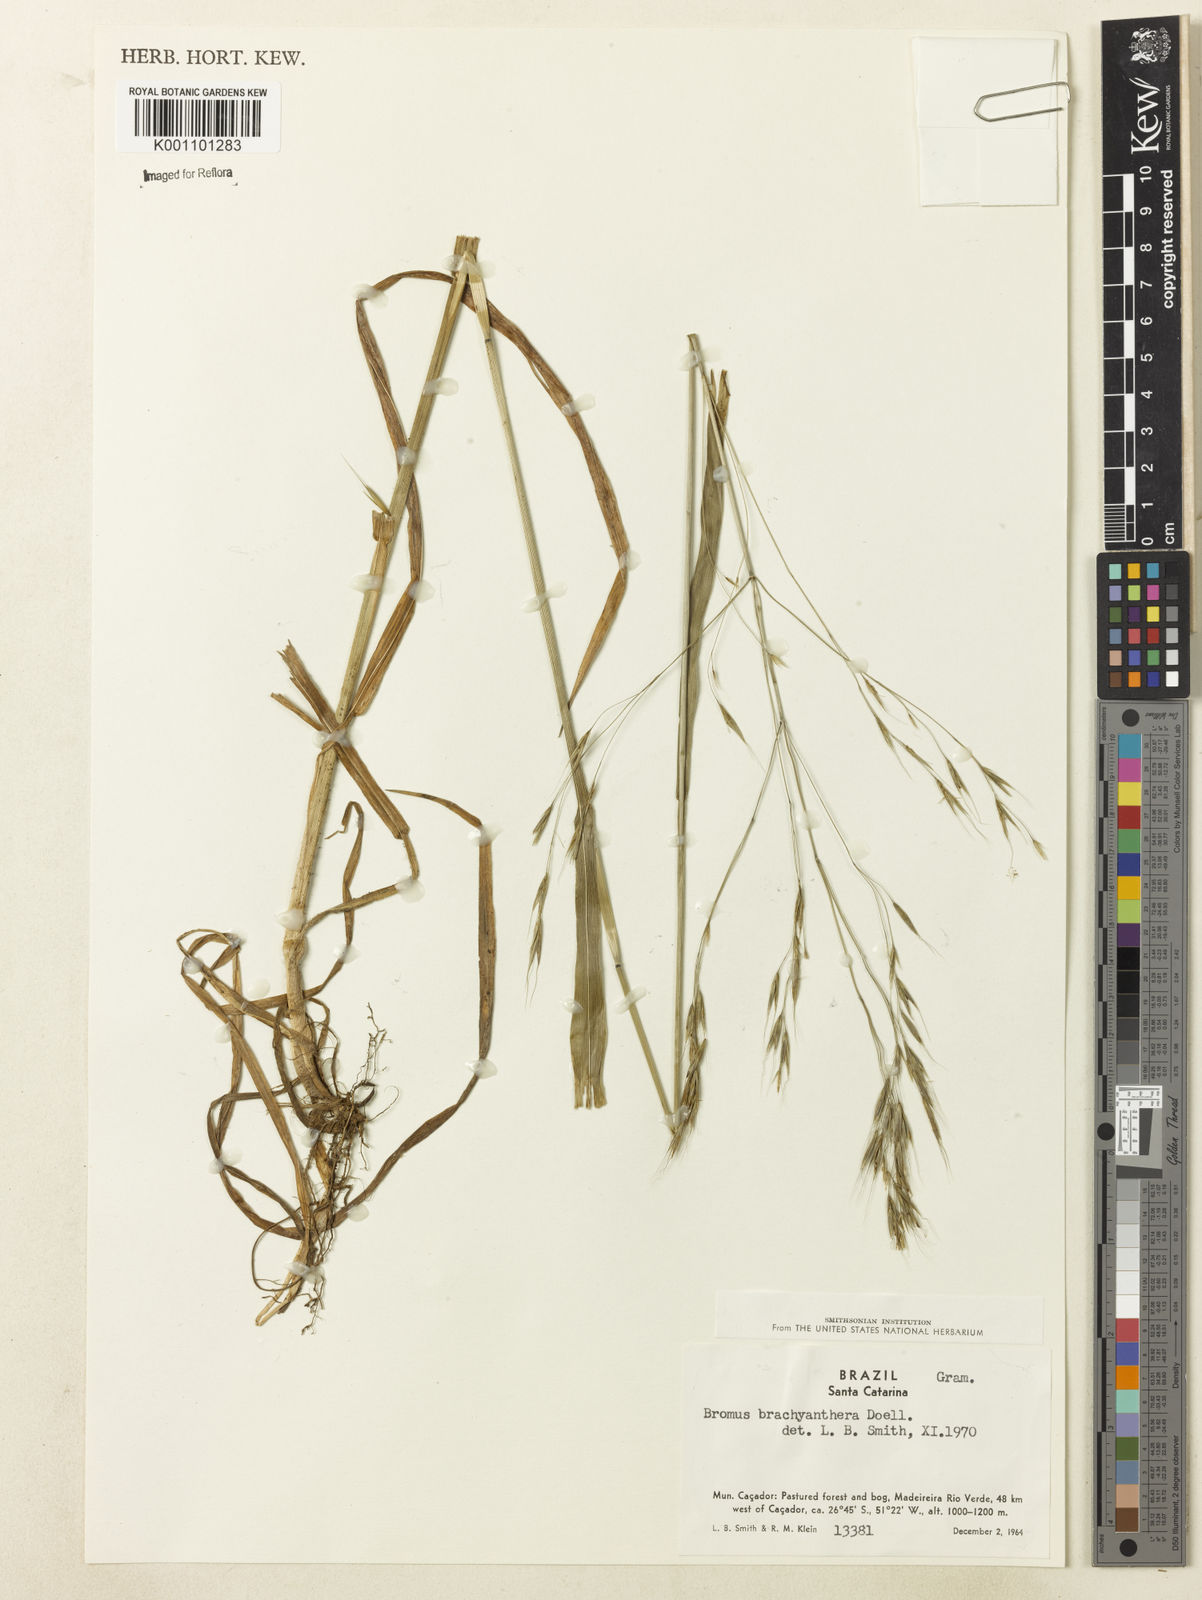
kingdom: Plantae
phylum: Tracheophyta
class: Liliopsida
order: Poales
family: Poaceae
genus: Bromus
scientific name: Bromus
